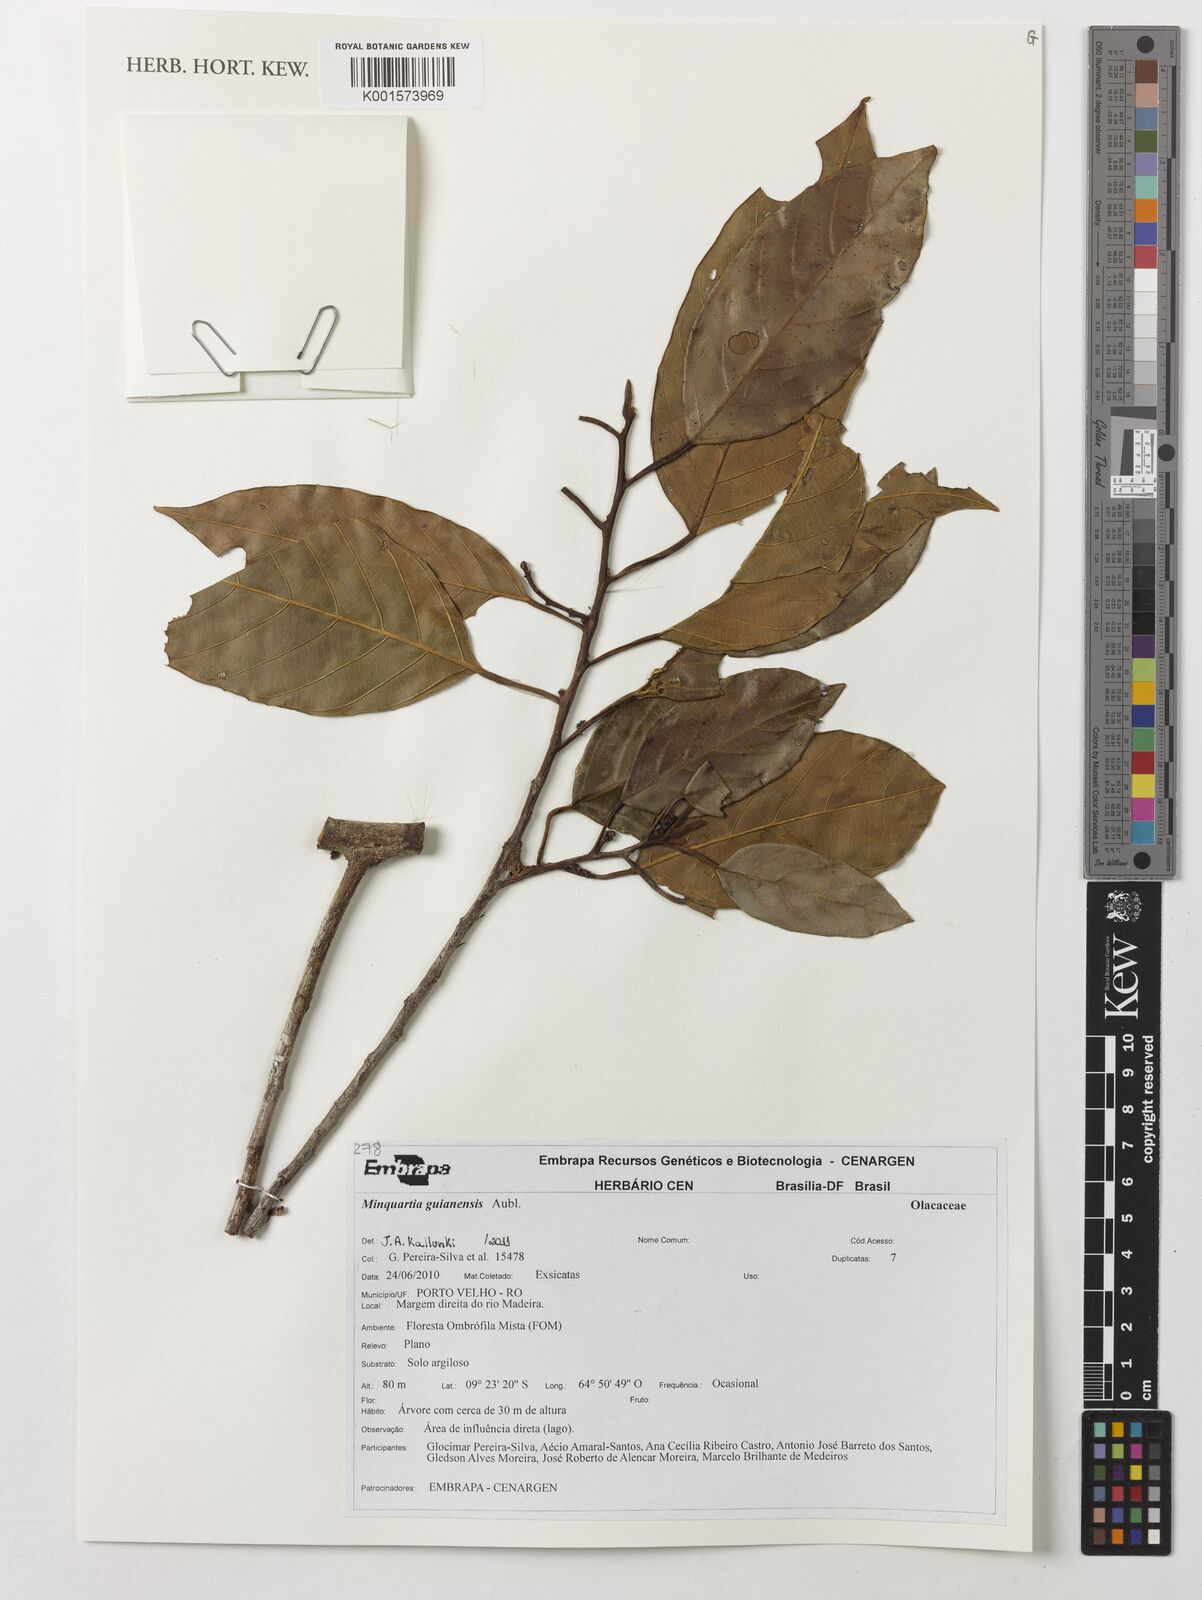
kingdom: Plantae
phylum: Tracheophyta
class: Magnoliopsida
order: Santalales
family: Coulaceae
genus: Minquartia
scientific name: Minquartia guianensis
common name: Black manwood
